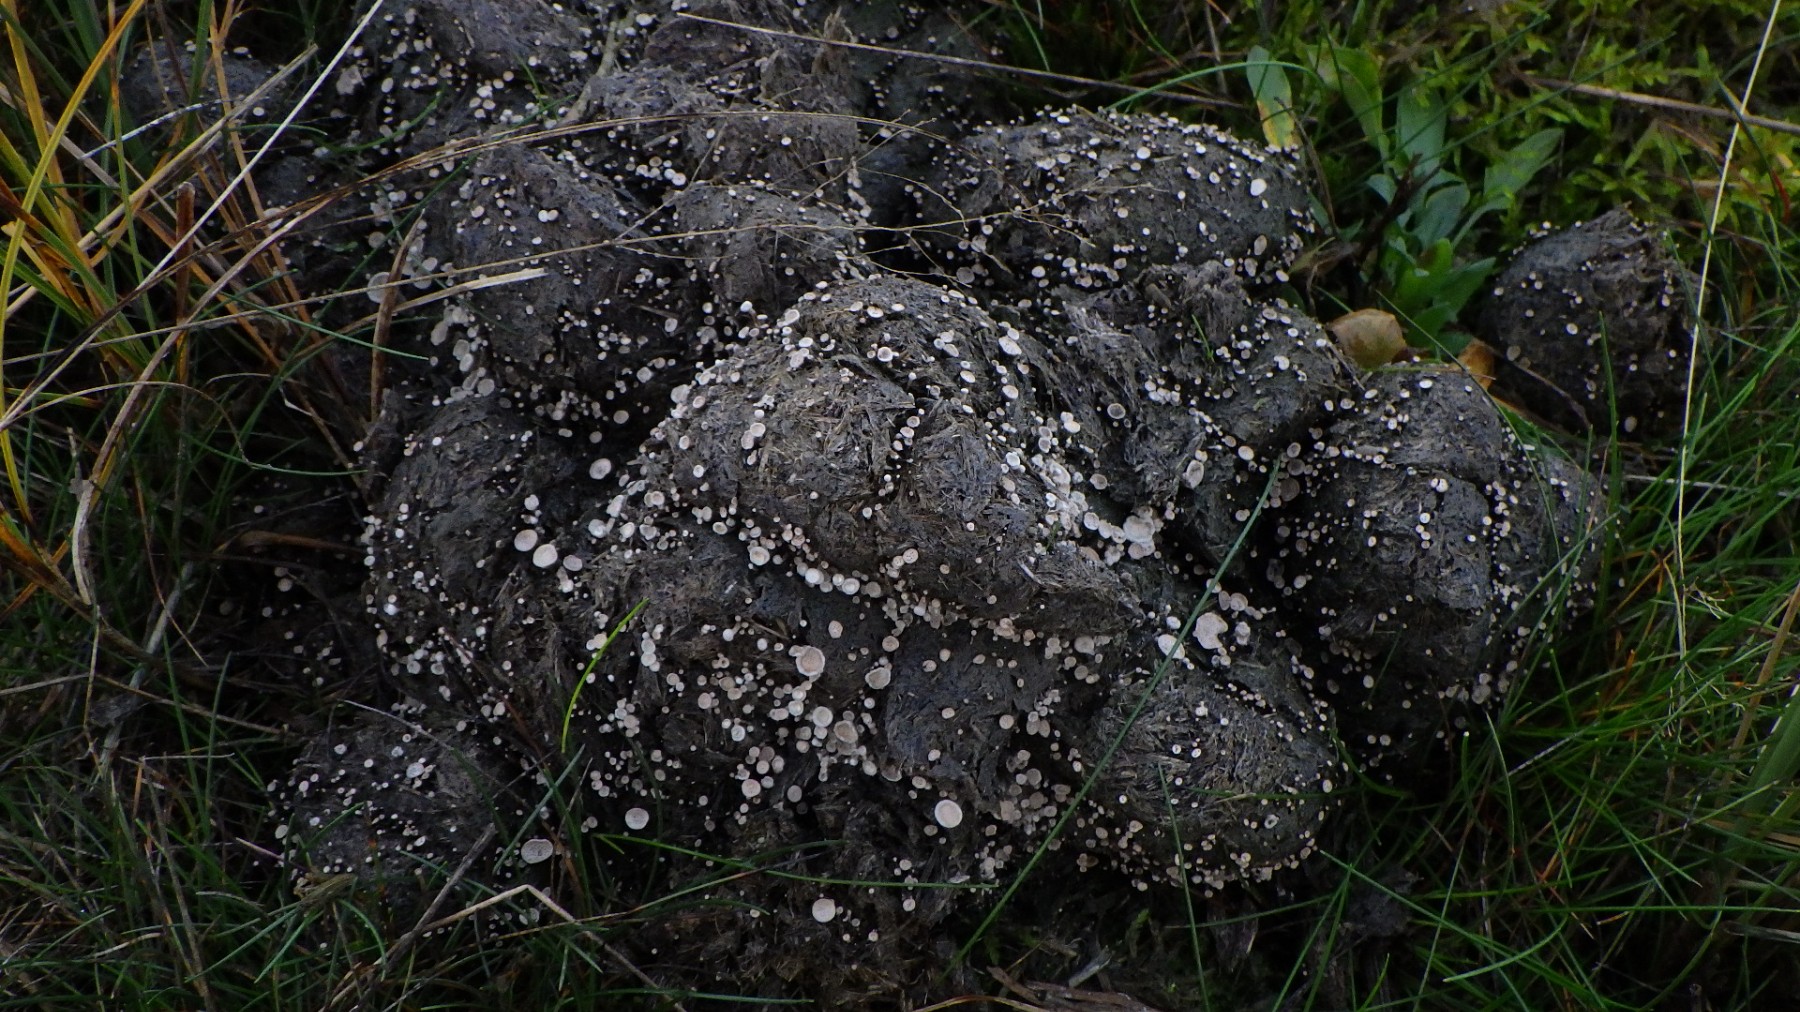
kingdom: Fungi
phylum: Ascomycota
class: Sordariomycetes
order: Xylariales
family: Xylariaceae
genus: Poronia
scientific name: Poronia punctata
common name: stor priksvamp
